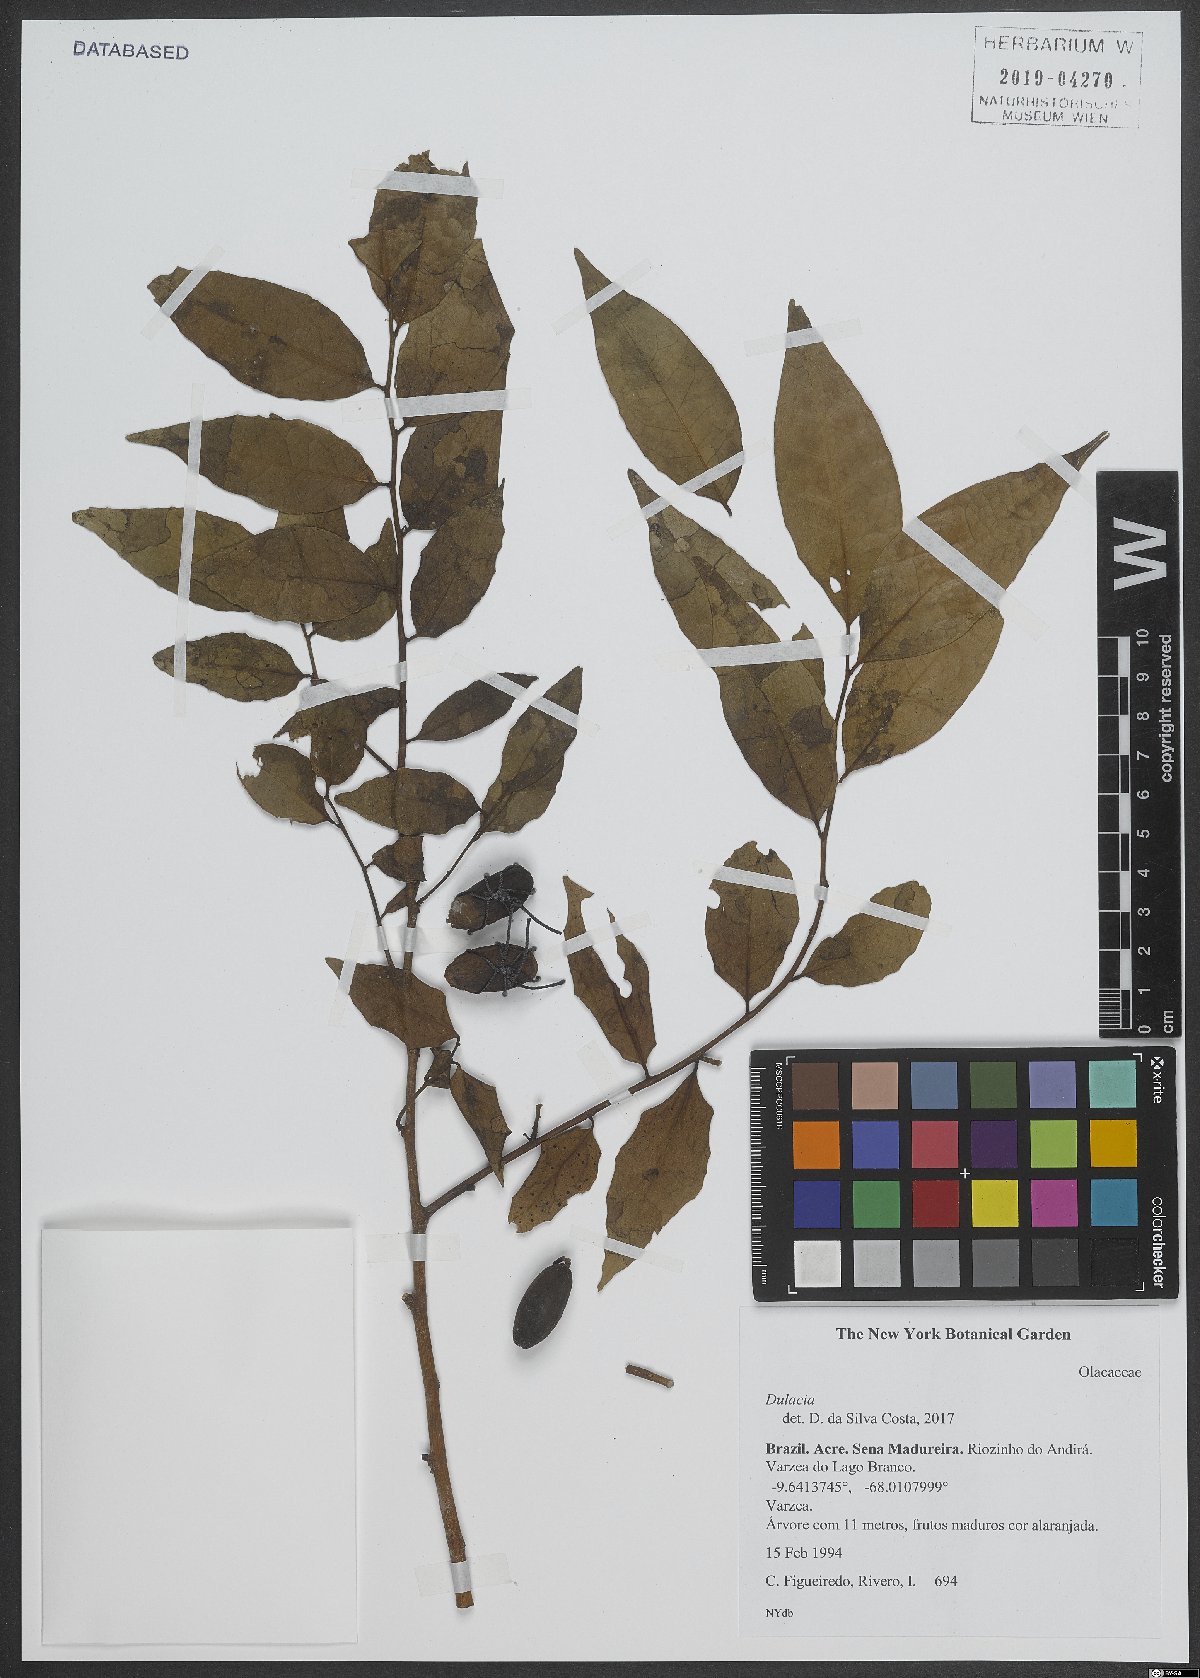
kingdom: Plantae
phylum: Tracheophyta
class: Magnoliopsida
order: Santalales
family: Olacaceae
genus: Dulacia
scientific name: Dulacia
